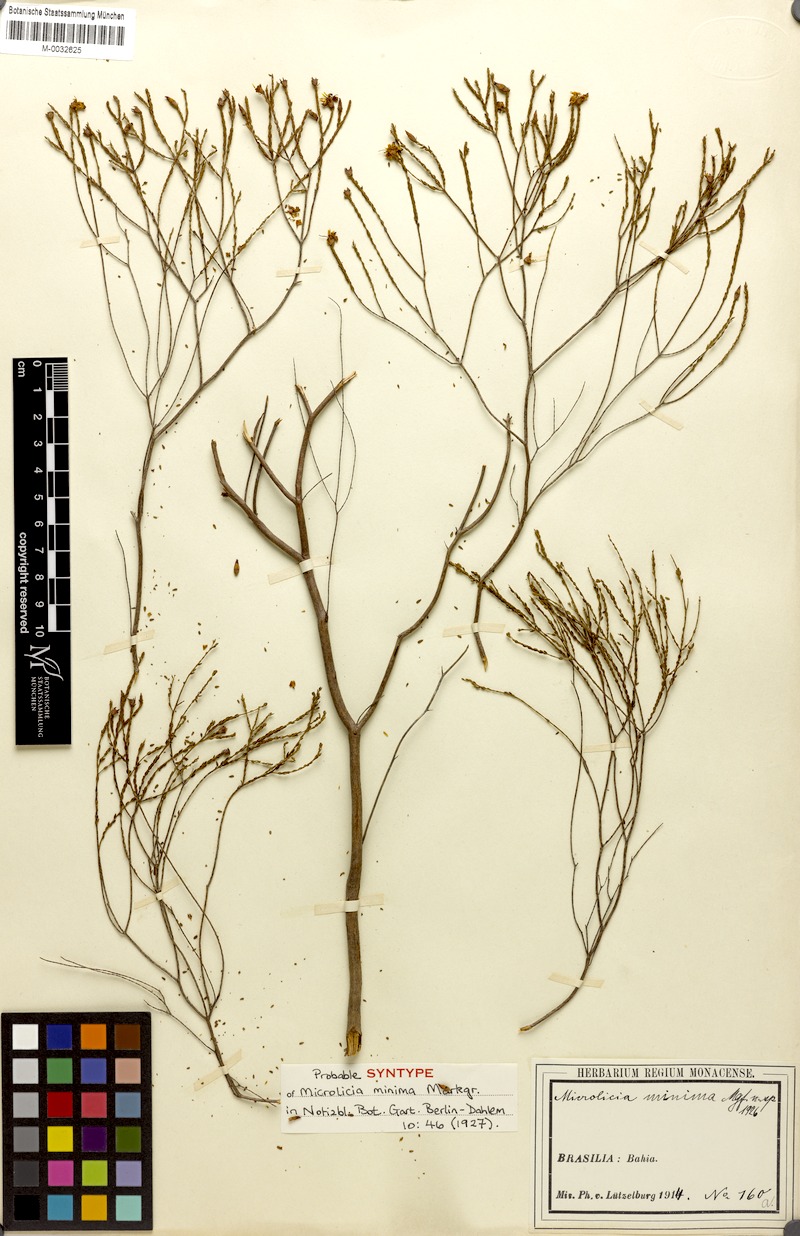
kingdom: Plantae
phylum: Tracheophyta
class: Magnoliopsida
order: Myrtales
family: Melastomataceae
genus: Microlicia
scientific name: Microlicia minima
